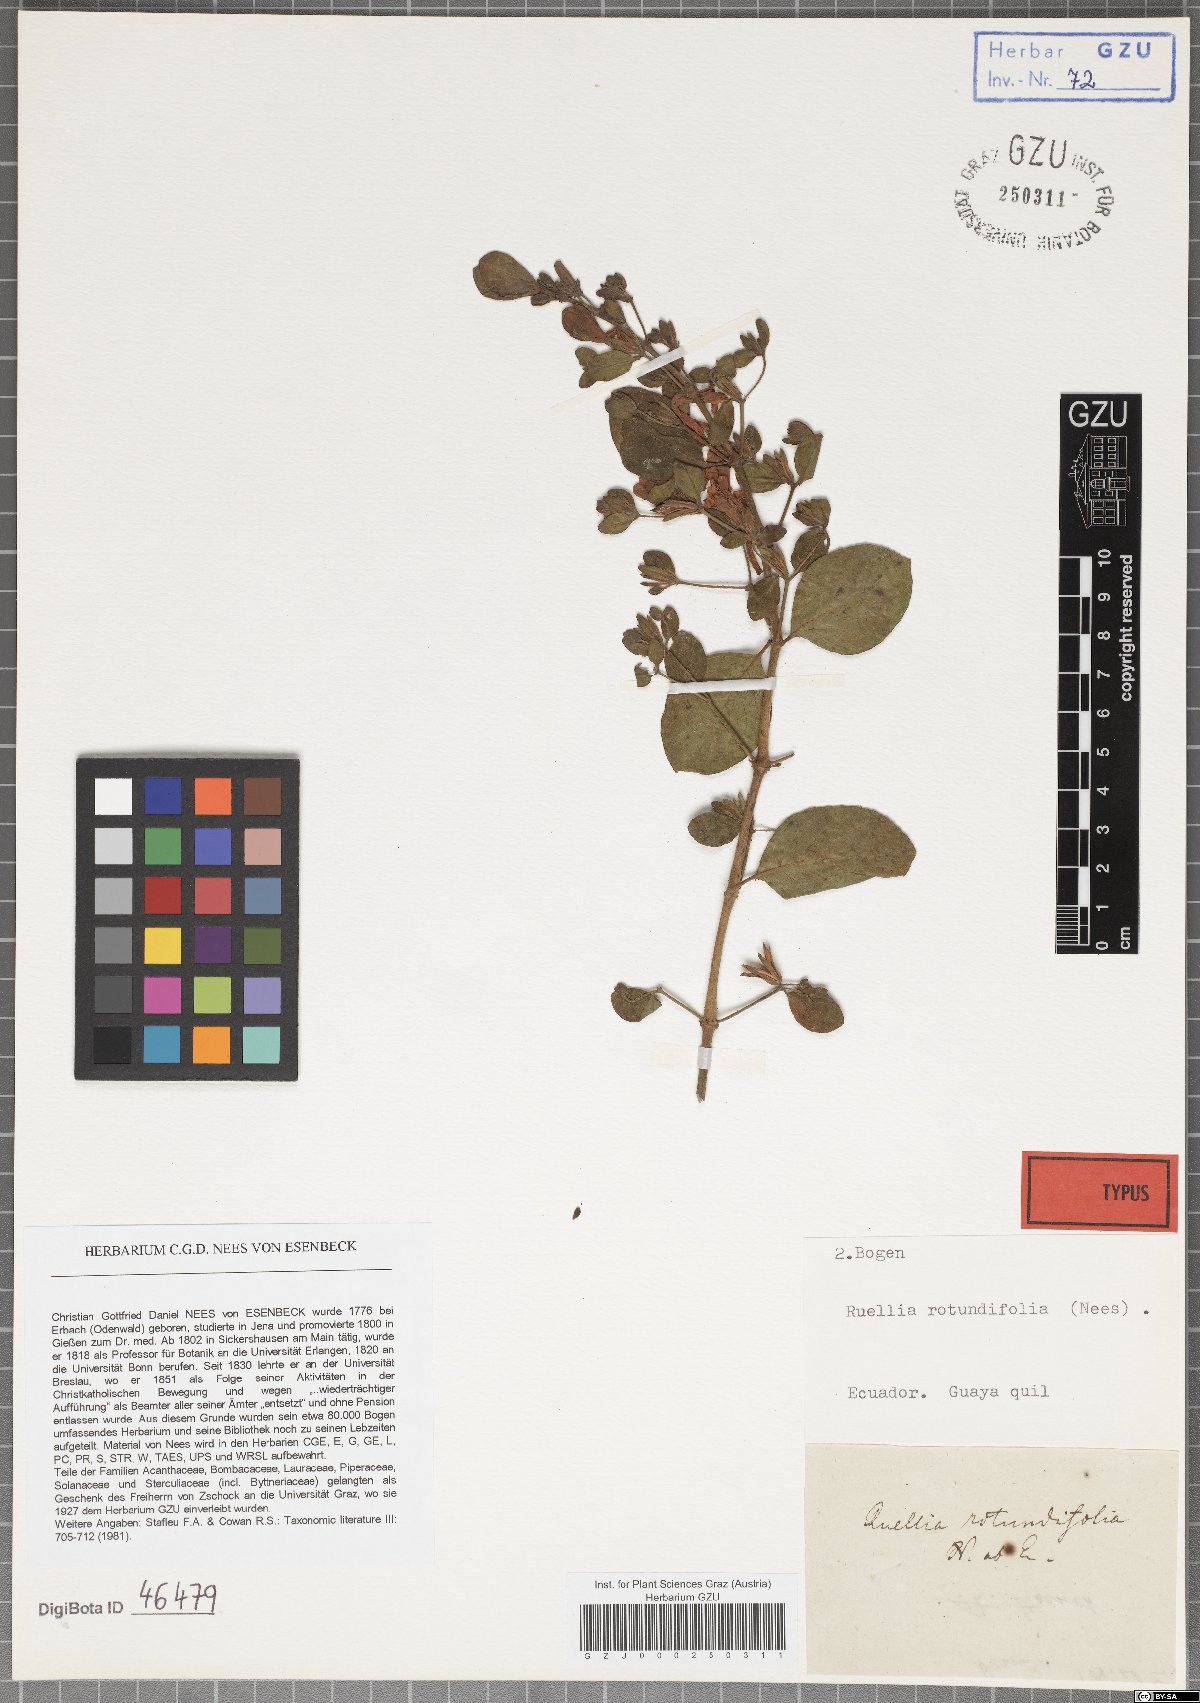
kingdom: Plantae
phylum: Tracheophyta
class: Magnoliopsida
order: Lamiales
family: Acanthaceae
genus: Ruellia
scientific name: Ruellia floribunda
